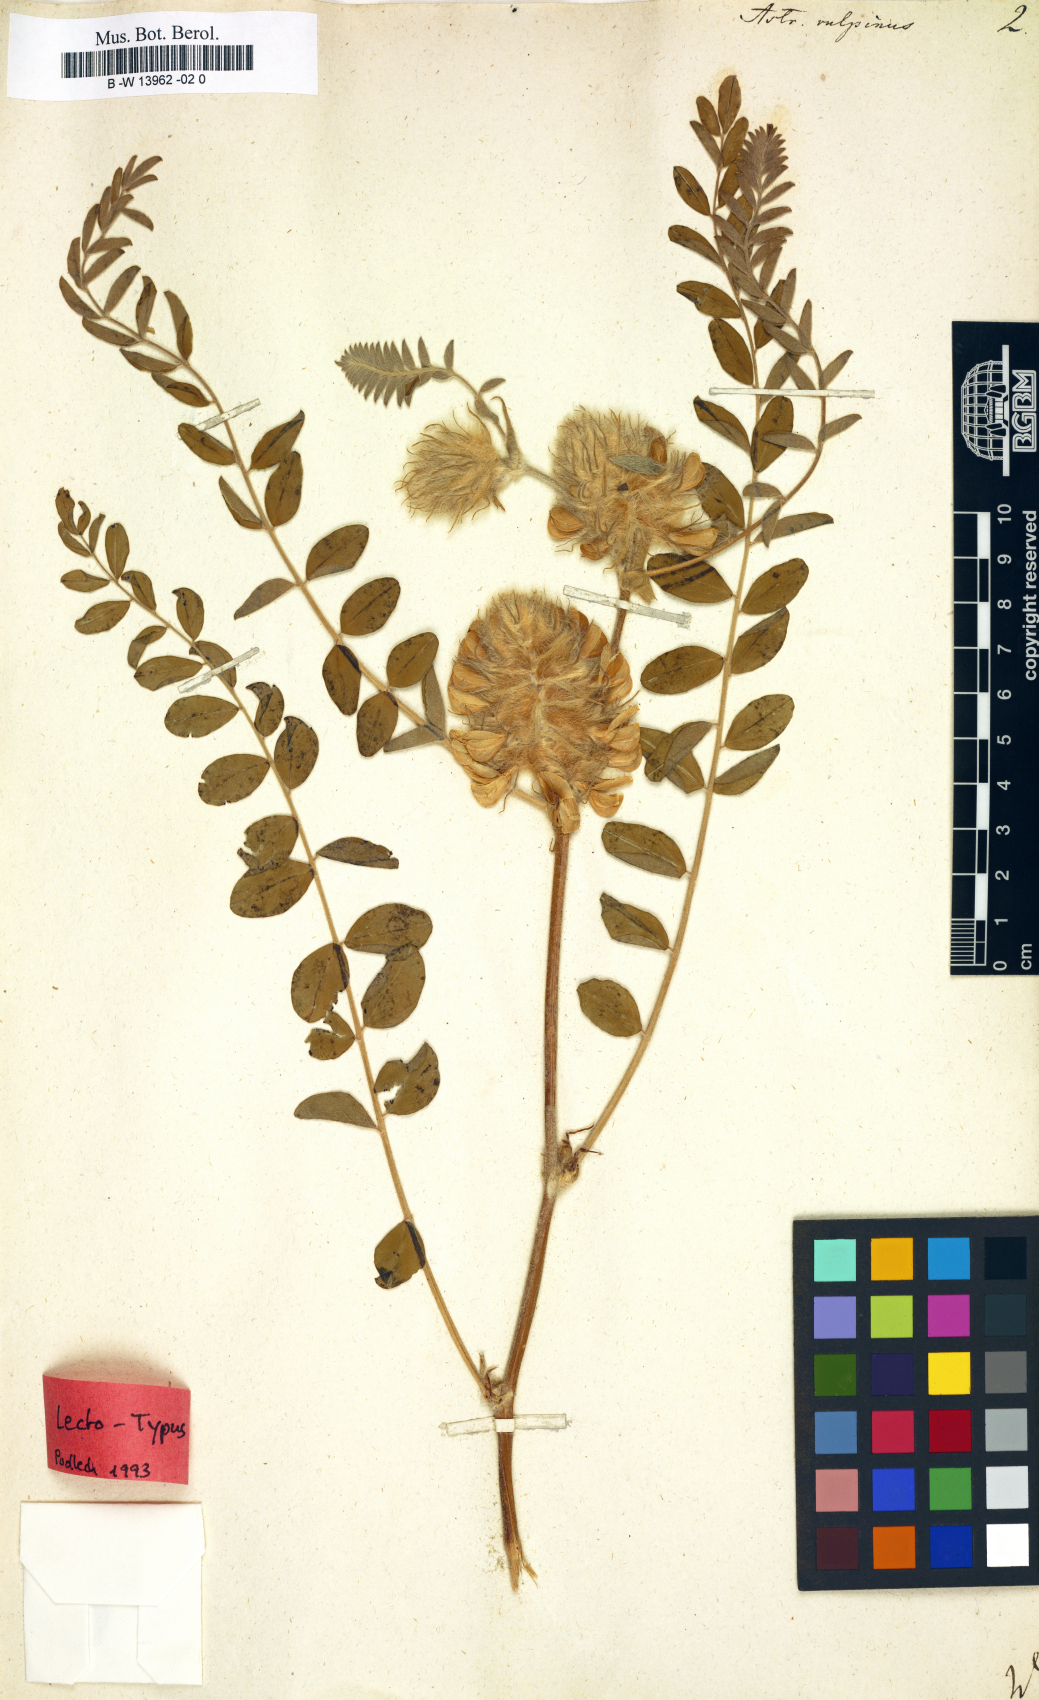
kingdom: Plantae
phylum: Tracheophyta
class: Magnoliopsida
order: Fabales
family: Fabaceae
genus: Astragalus
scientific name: Astragalus vulpinus
